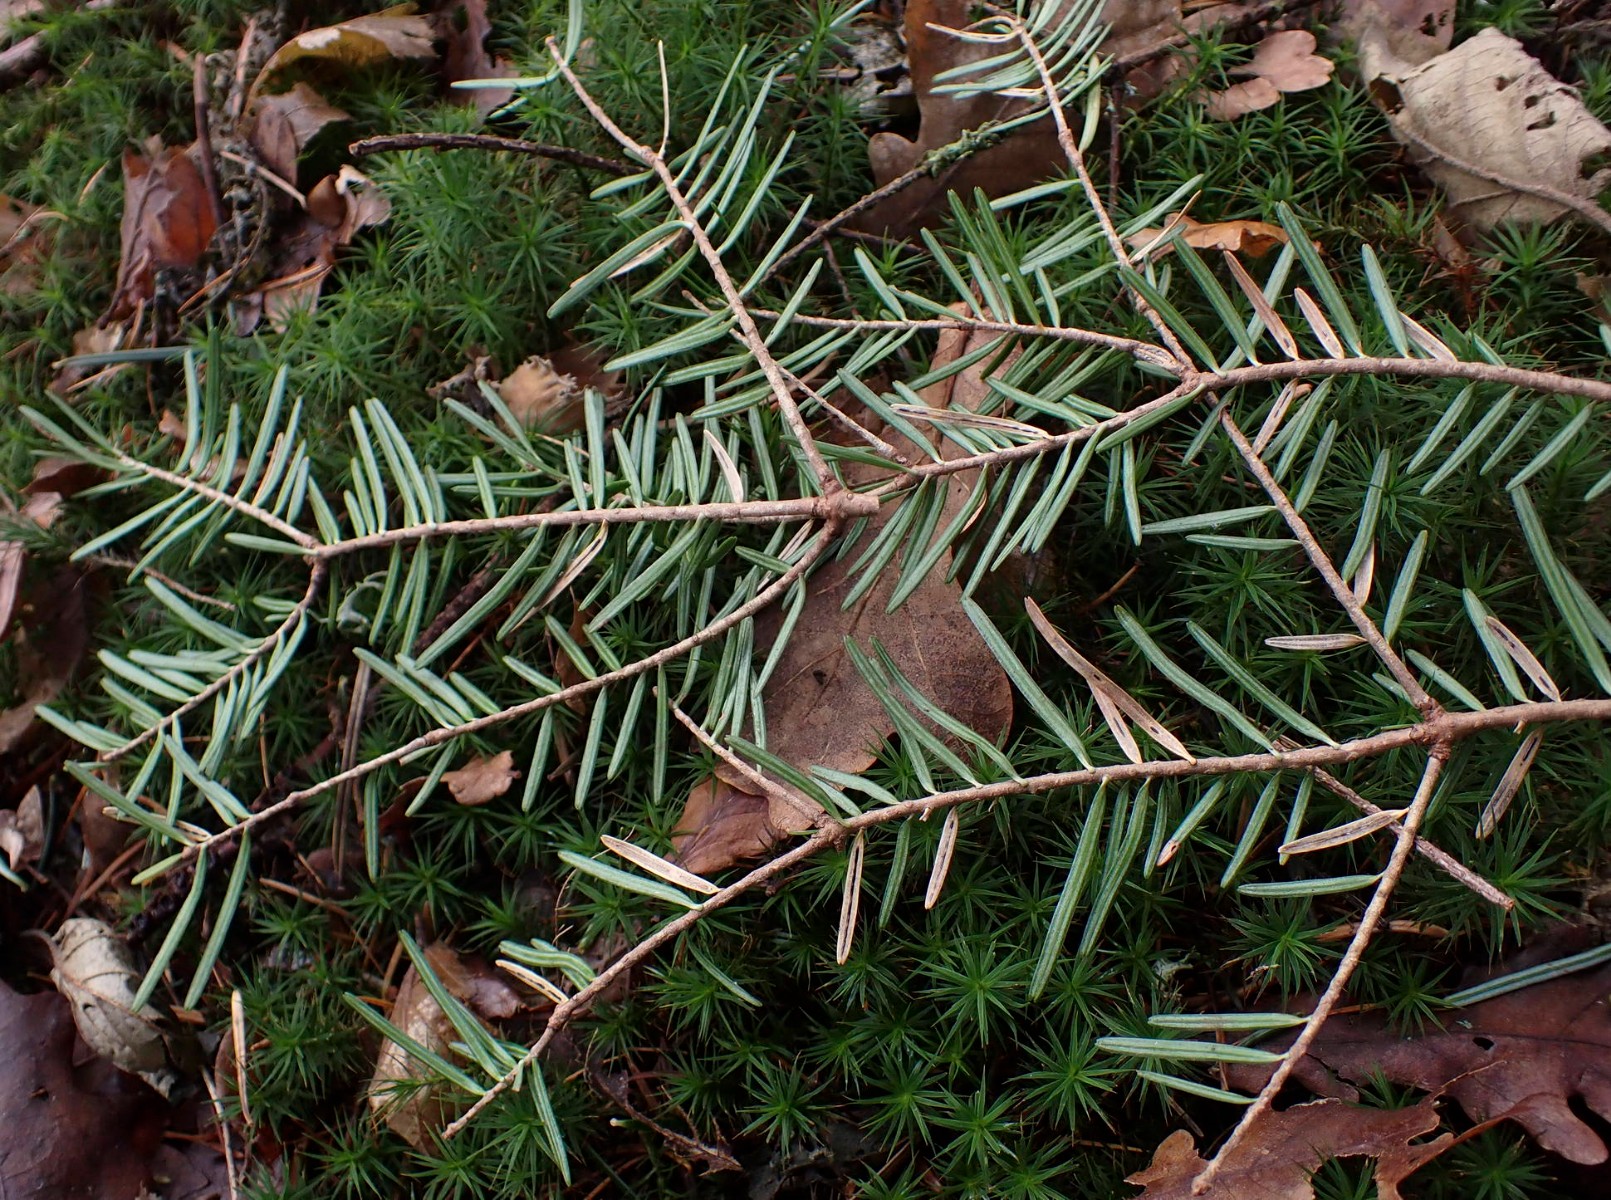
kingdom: Fungi
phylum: Ascomycota
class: Leotiomycetes
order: Rhytismatales
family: Rhytismataceae
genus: Lirula
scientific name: Lirula nervisequia
